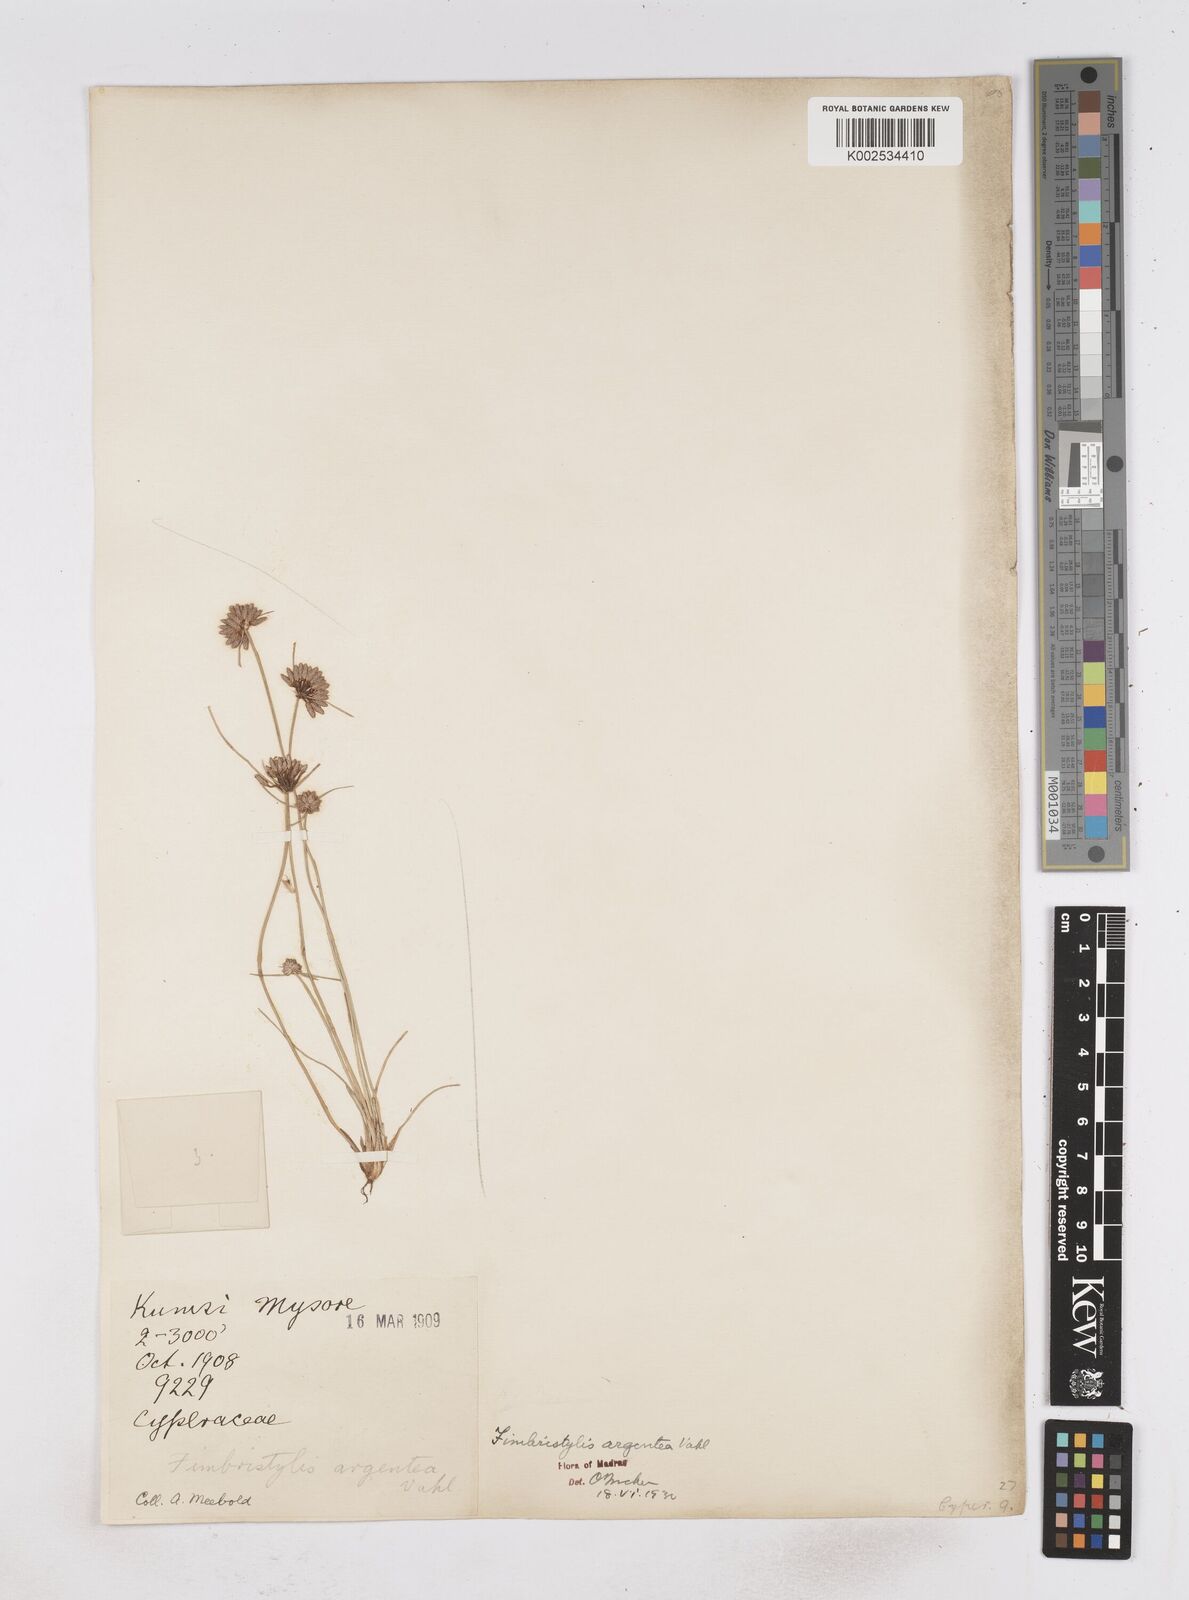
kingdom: Plantae
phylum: Tracheophyta
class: Liliopsida
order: Poales
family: Cyperaceae
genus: Fimbristylis
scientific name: Fimbristylis argentea
